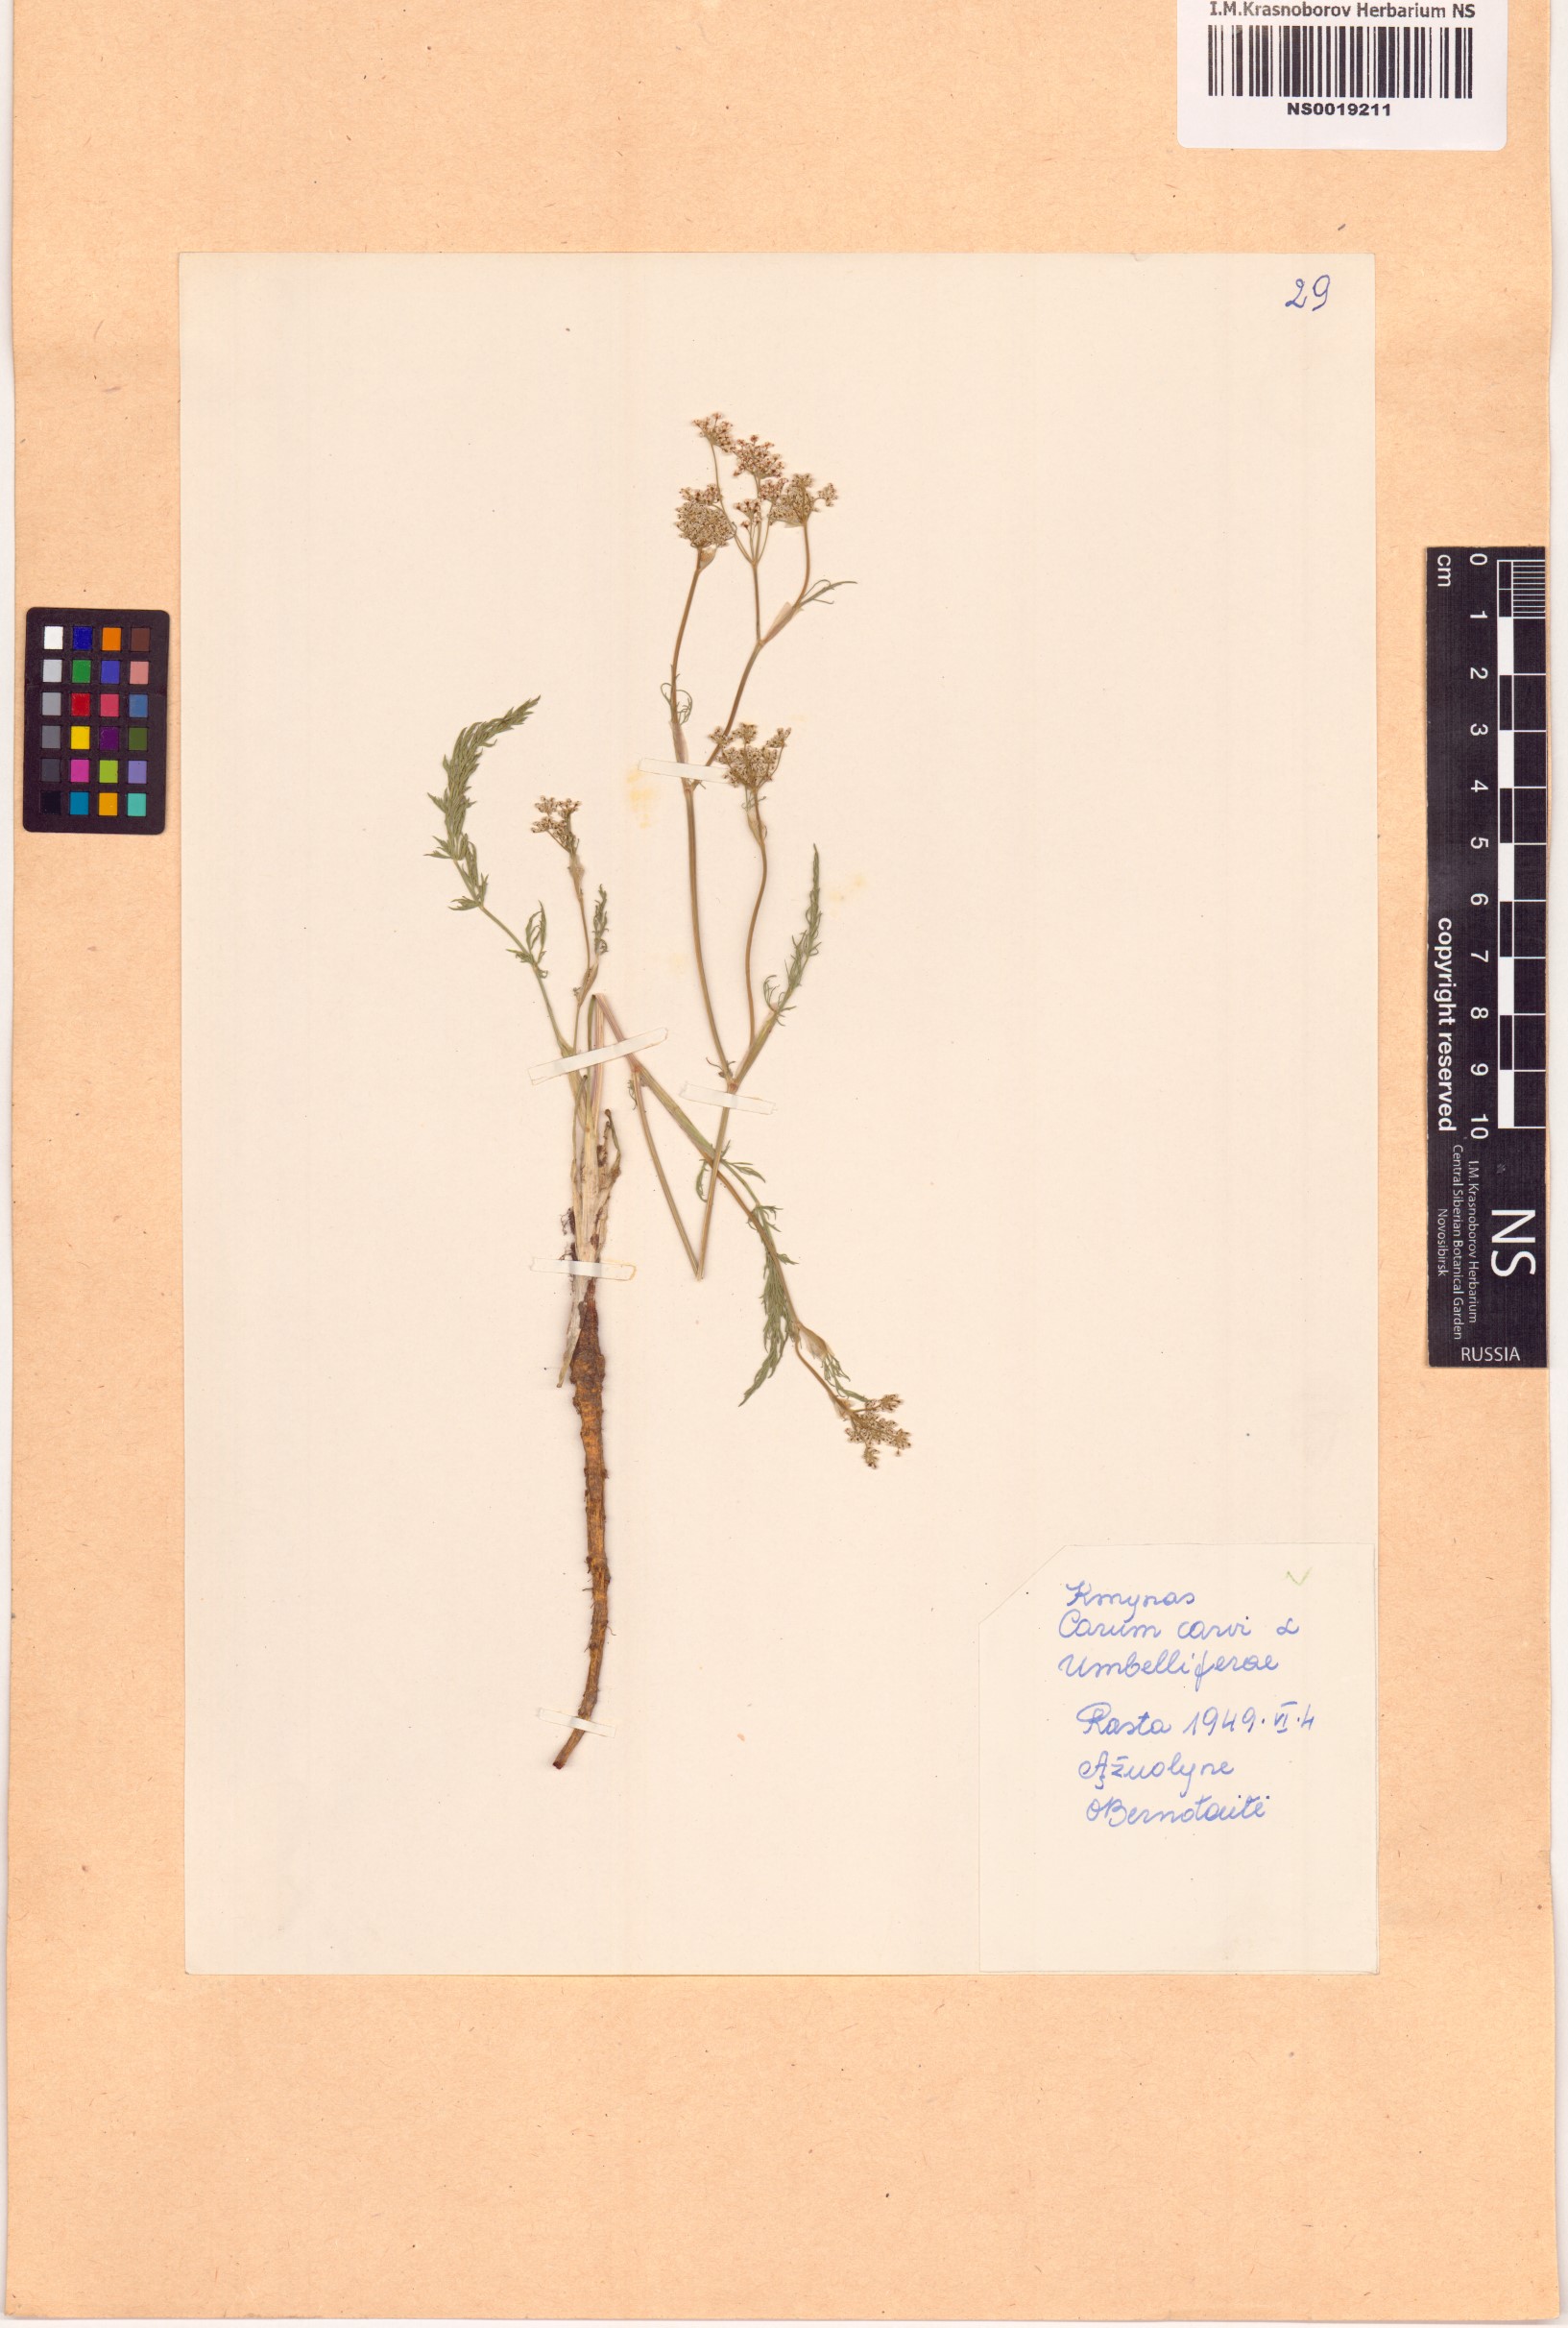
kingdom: Plantae
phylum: Tracheophyta
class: Magnoliopsida
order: Apiales
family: Apiaceae
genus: Carum
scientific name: Carum carvi
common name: Caraway
